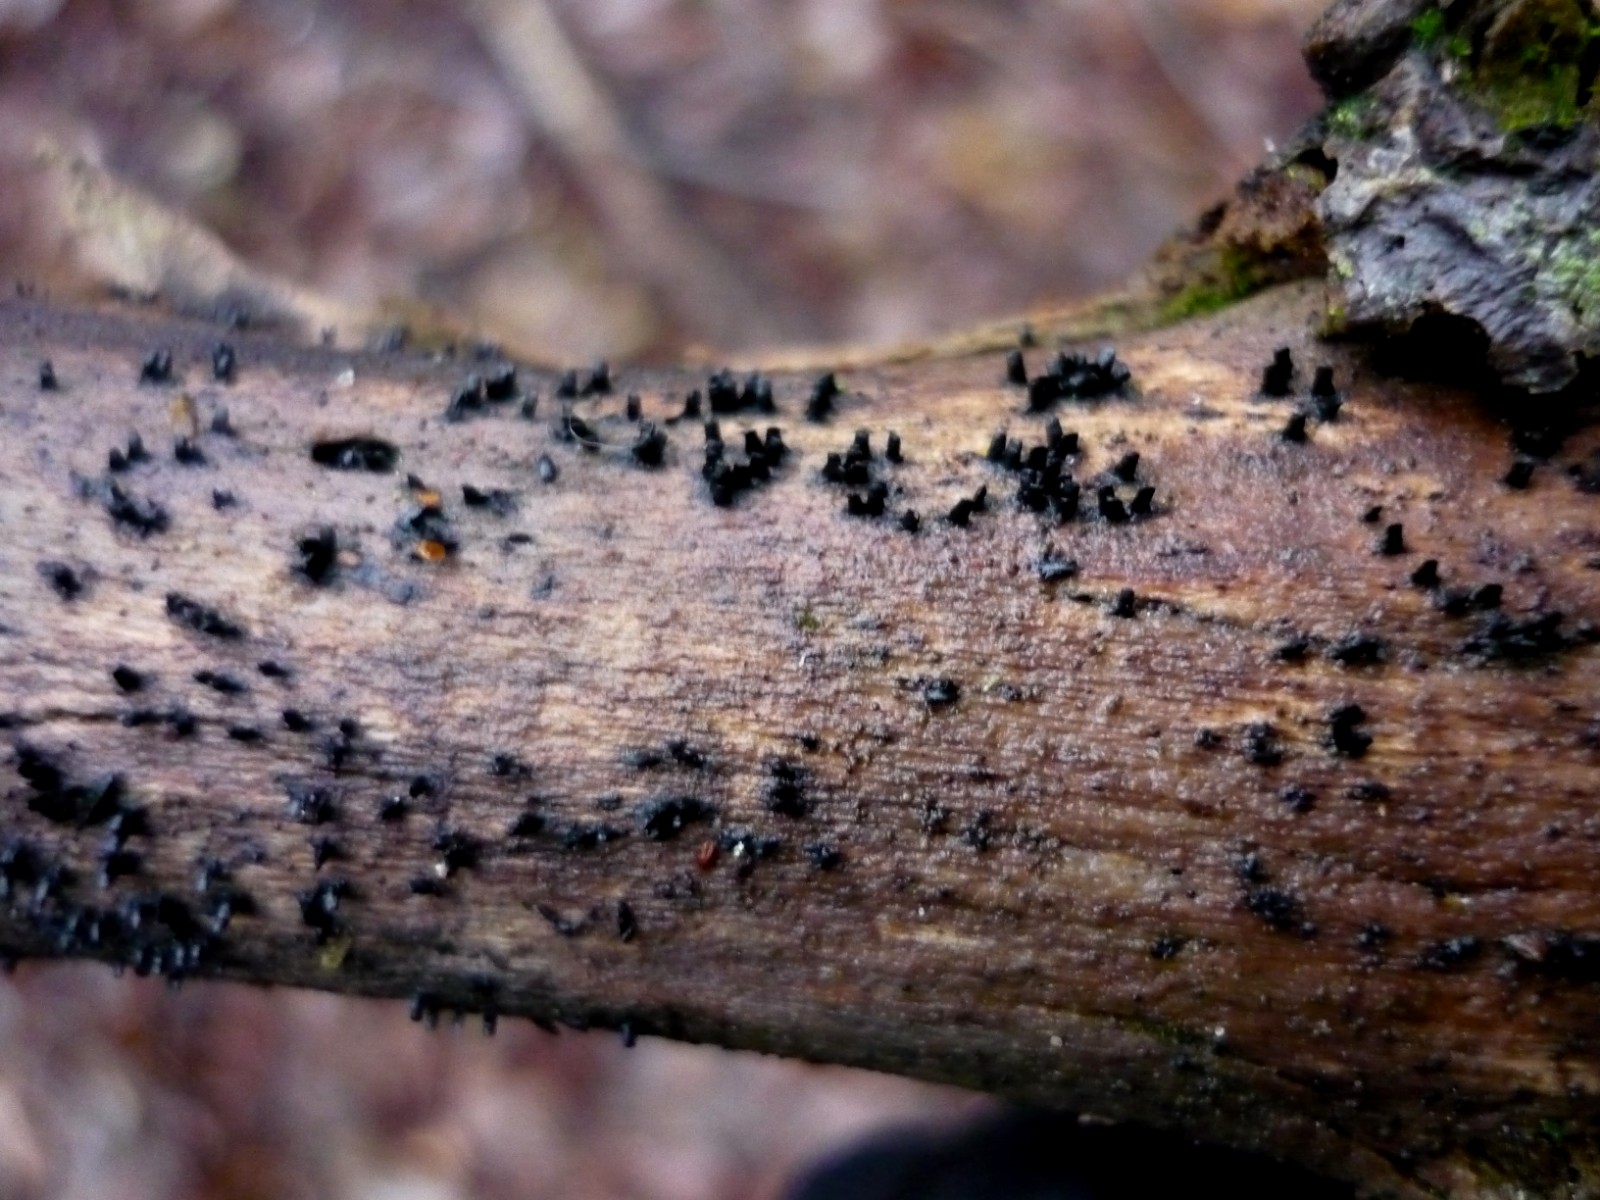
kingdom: Fungi
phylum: Ascomycota
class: Eurotiomycetes
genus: Glyphium
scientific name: Glyphium elatum
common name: kuløkse
